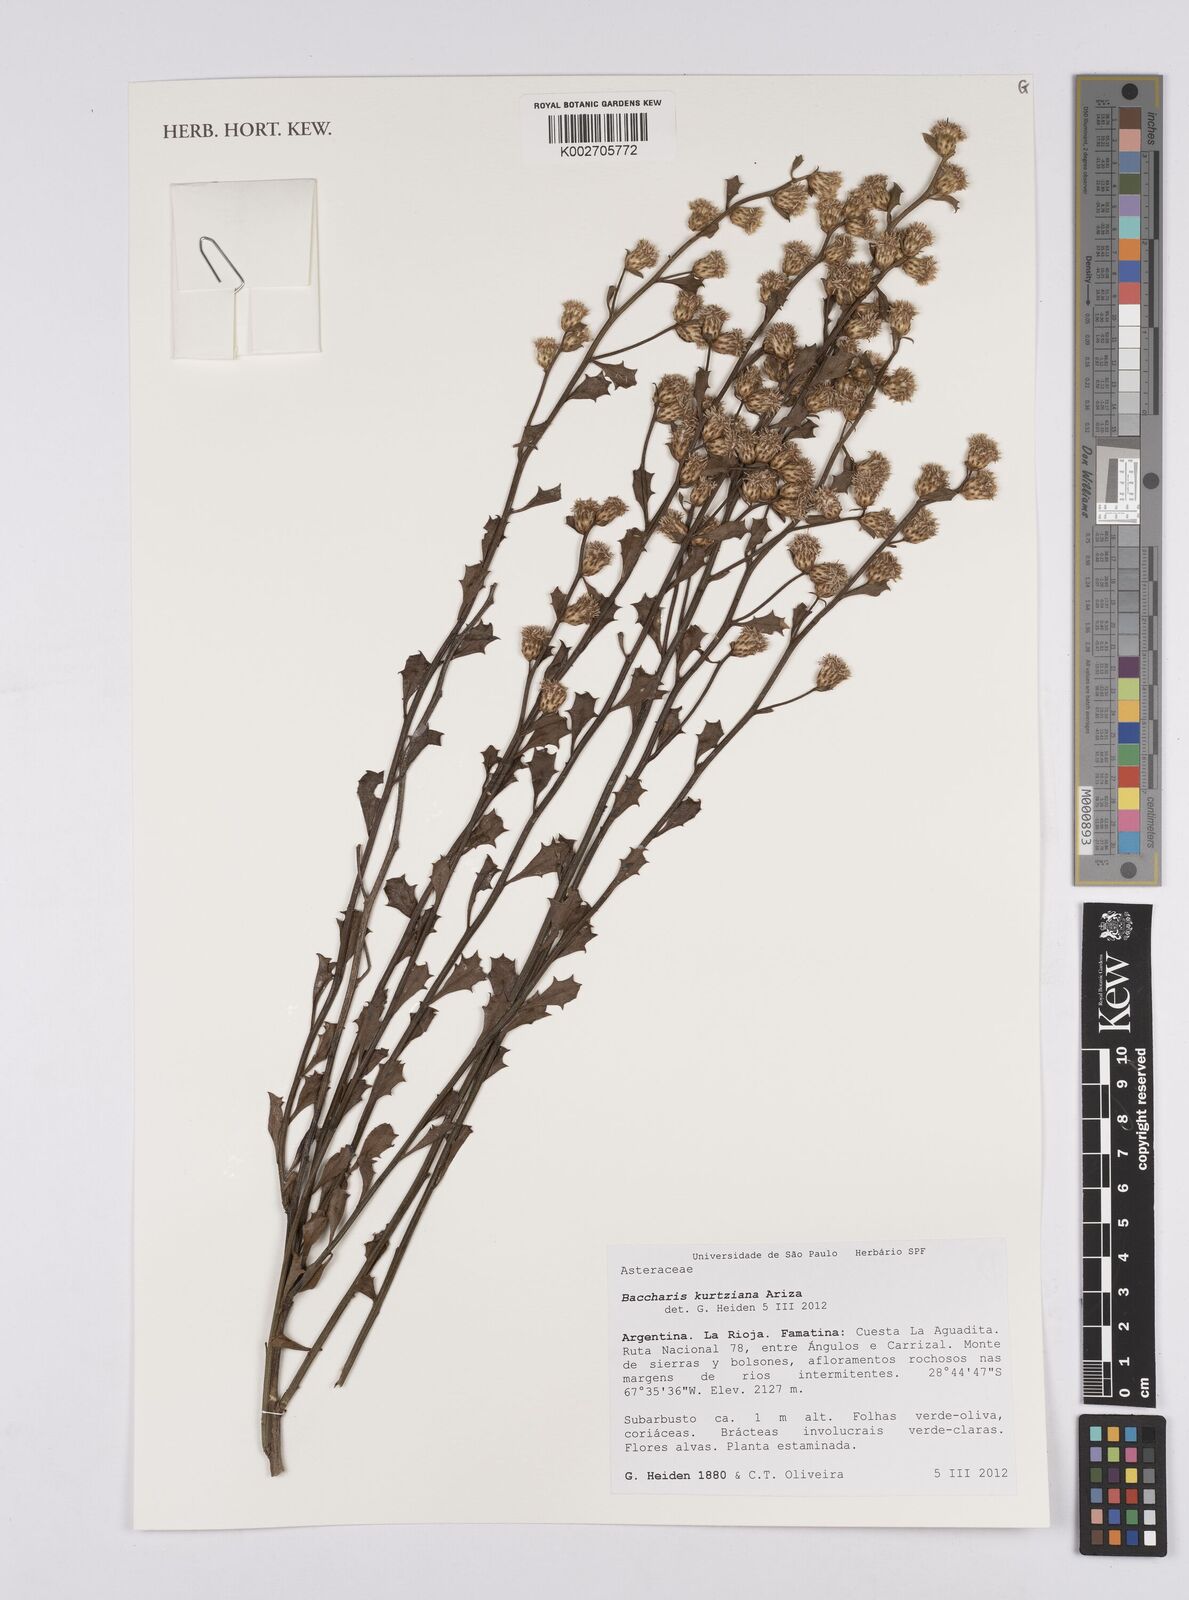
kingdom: Plantae
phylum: Tracheophyta
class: Magnoliopsida
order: Asterales
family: Asteraceae
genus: Baccharis
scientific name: Baccharis kurtziana
